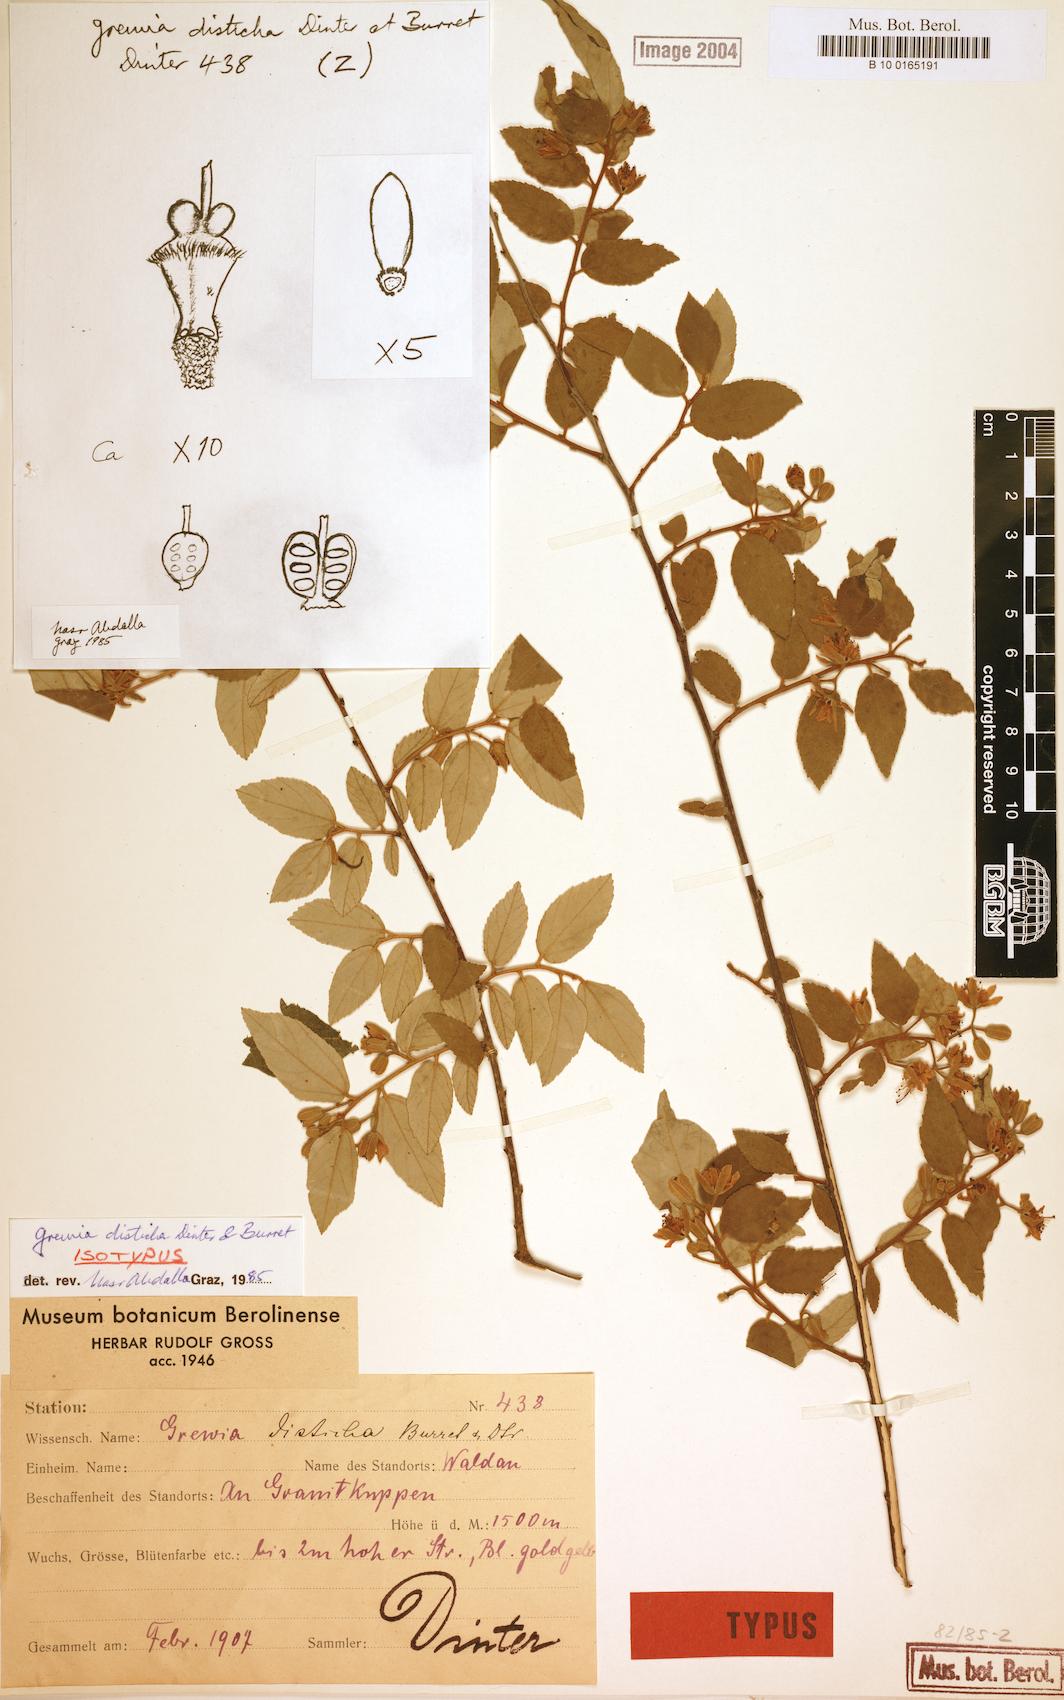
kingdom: Plantae
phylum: Tracheophyta
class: Magnoliopsida
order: Malvales
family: Malvaceae
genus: Grewia
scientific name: Grewia bicolor
